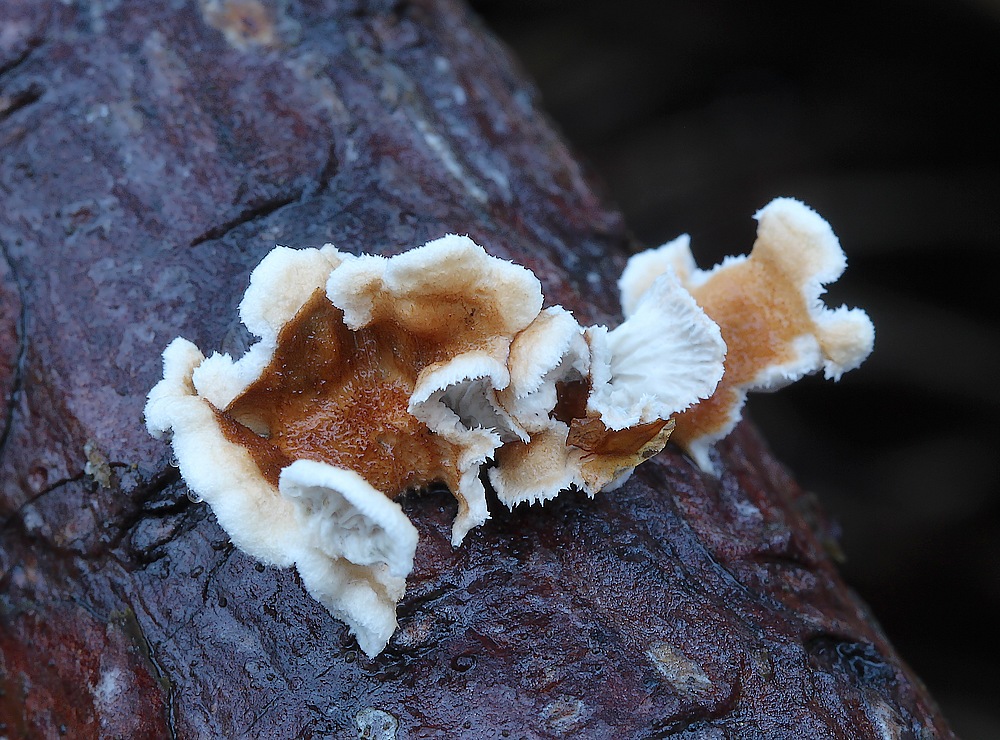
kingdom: Fungi
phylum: Basidiomycota
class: Agaricomycetes
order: Amylocorticiales
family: Amylocorticiaceae
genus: Plicaturopsis
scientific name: Plicaturopsis crispa
